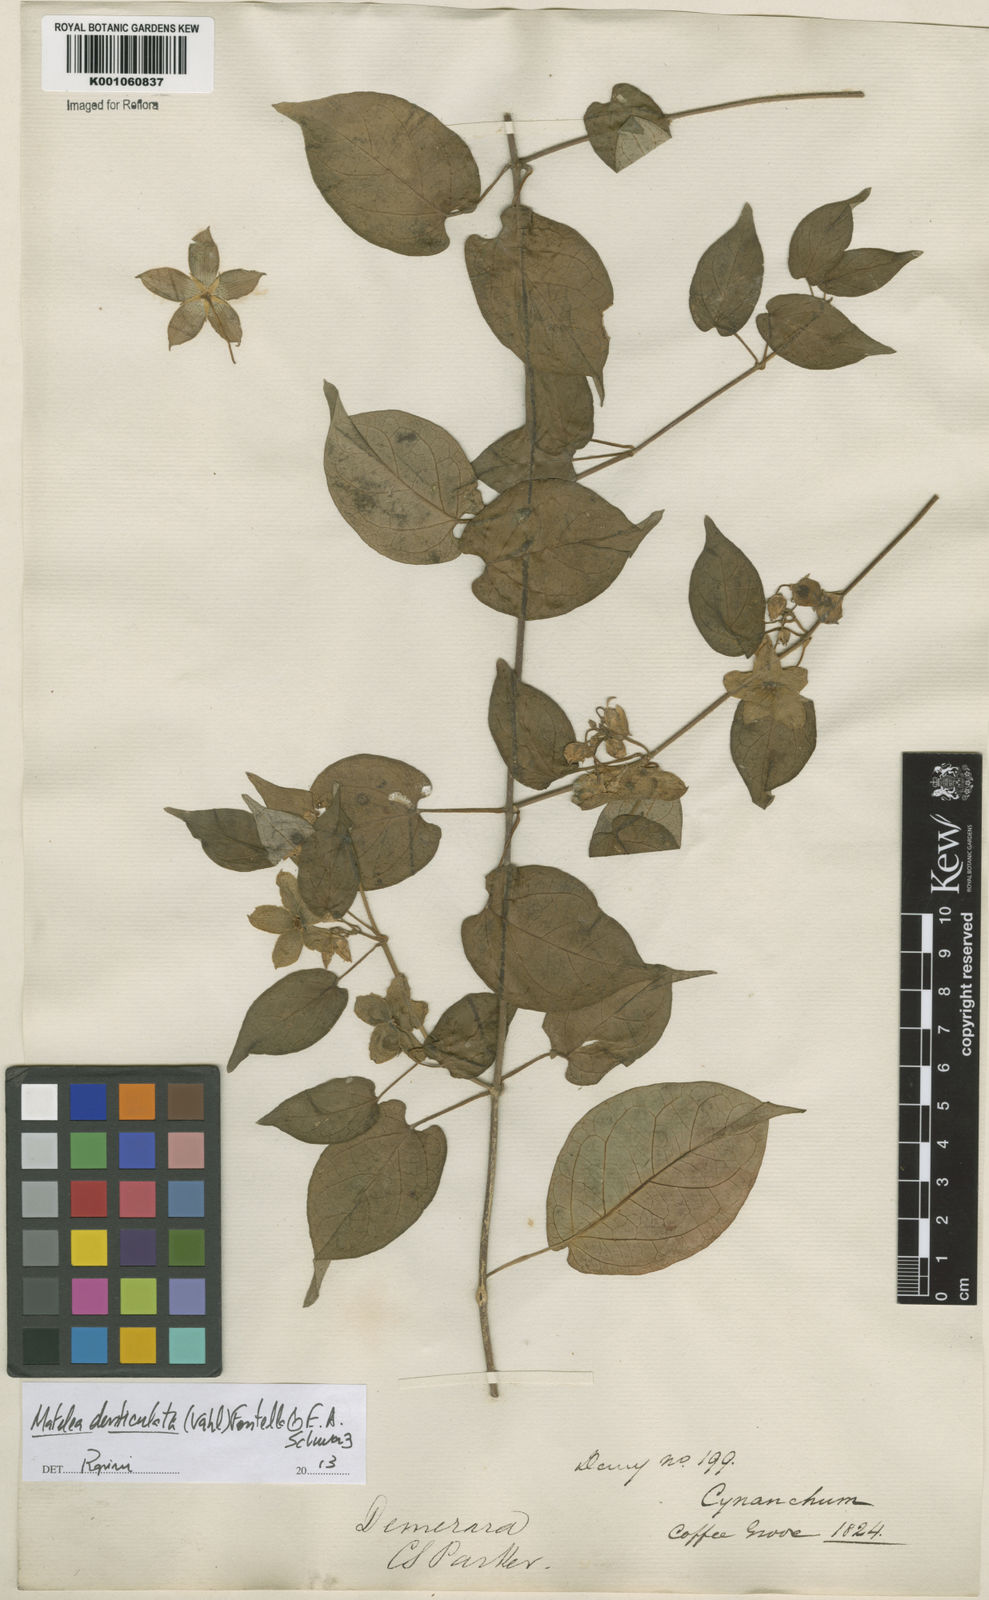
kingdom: Plantae
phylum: Tracheophyta
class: Magnoliopsida
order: Gentianales
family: Apocynaceae
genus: Chloropetalum
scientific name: Chloropetalum denticulatum
